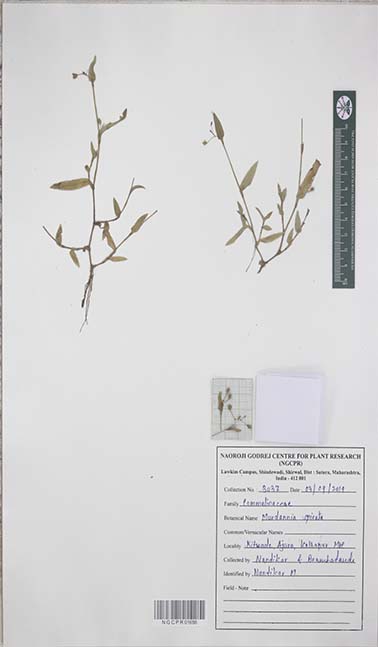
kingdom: Plantae
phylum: Tracheophyta
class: Liliopsida
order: Commelinales
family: Commelinaceae
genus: Murdannia
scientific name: Murdannia spirata
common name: Asiatic dewflower
